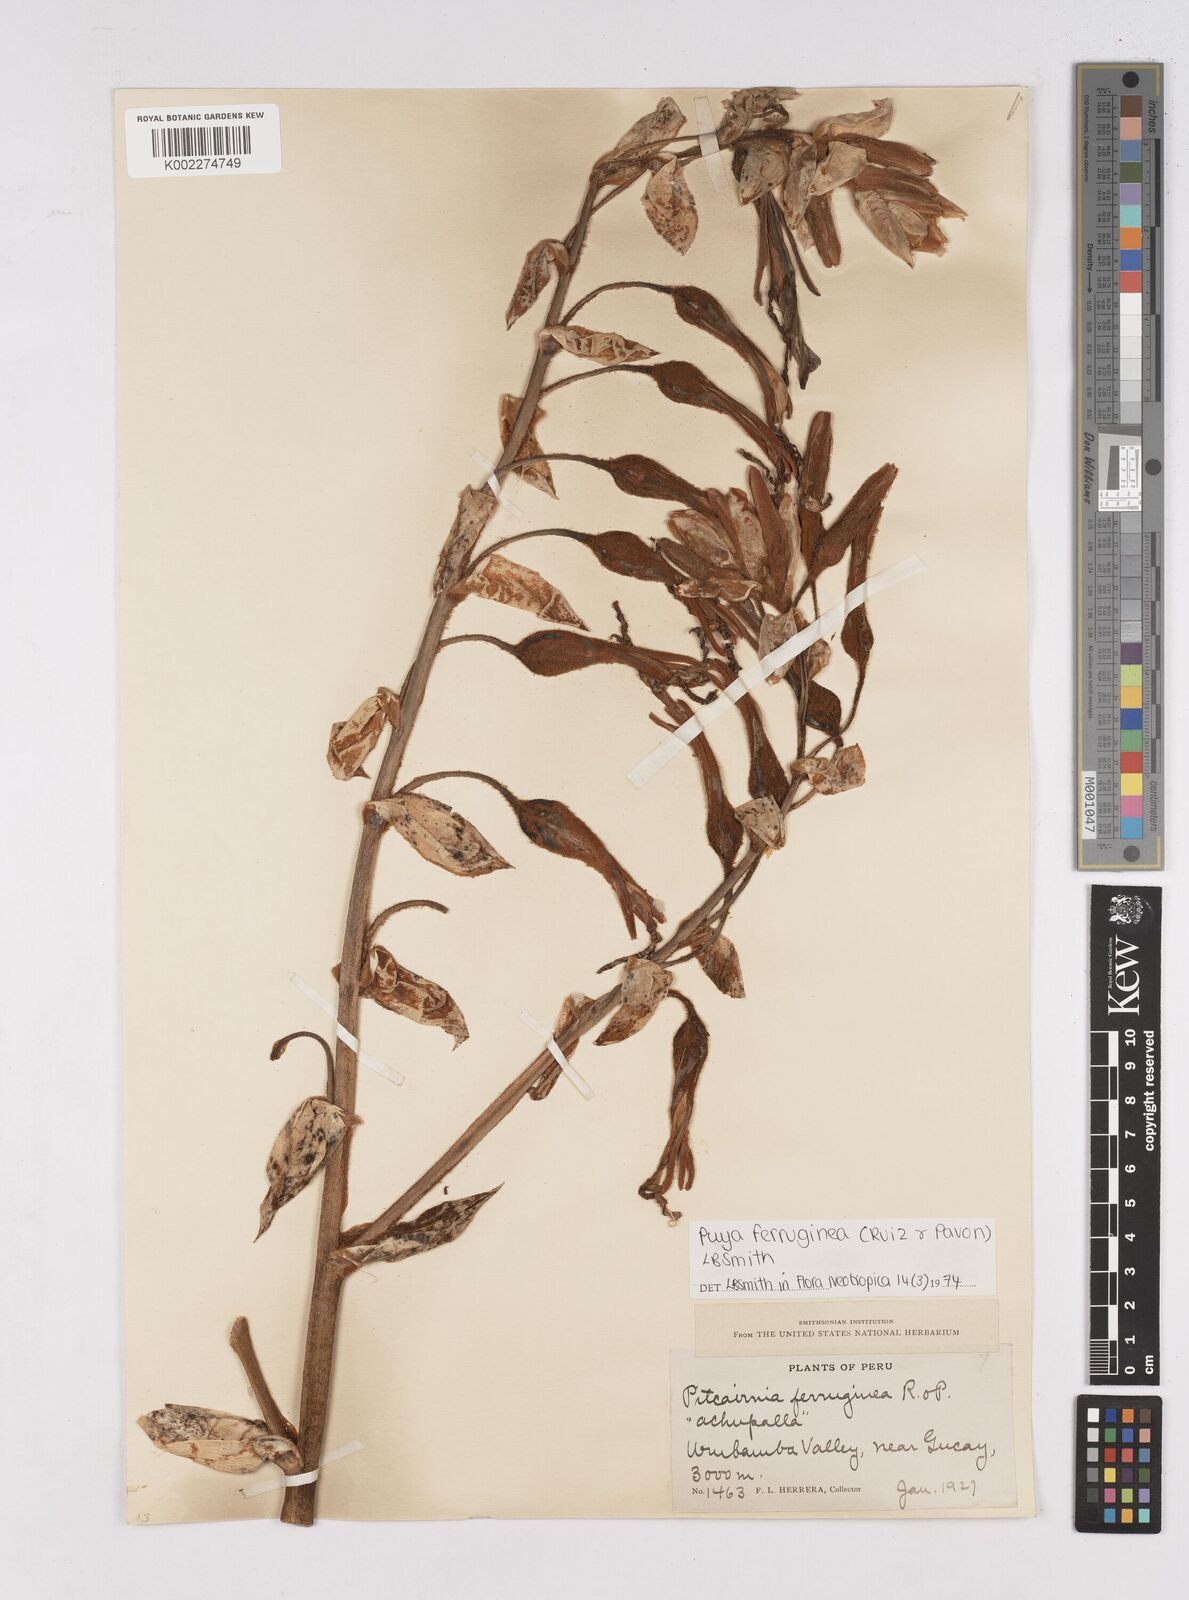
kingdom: Plantae
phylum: Tracheophyta
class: Liliopsida
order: Poales
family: Bromeliaceae
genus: Puya
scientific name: Puya ferruginea
